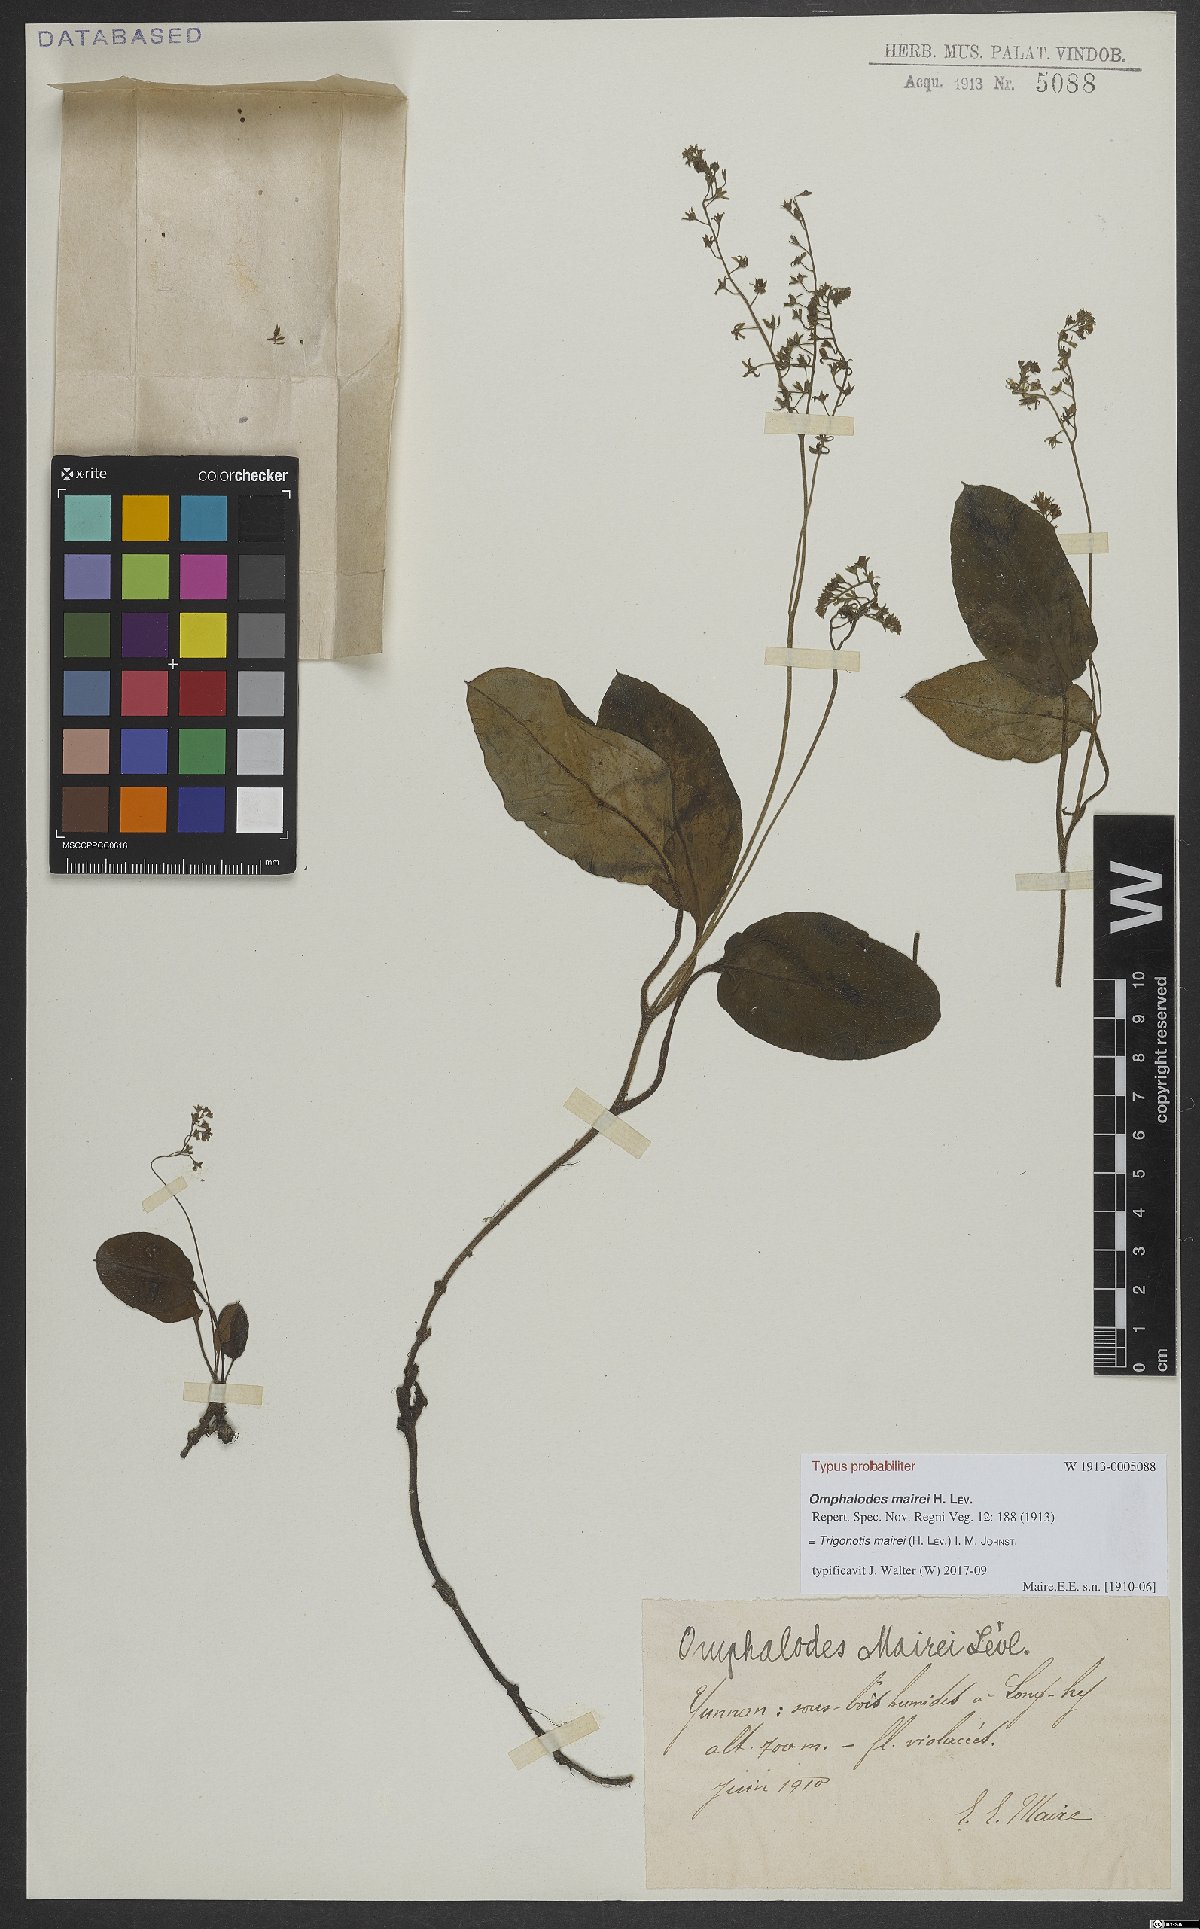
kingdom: Plantae
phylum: Tracheophyta
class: Magnoliopsida
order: Boraginales
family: Boraginaceae
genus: Trigonotis
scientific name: Trigonotis mairei
